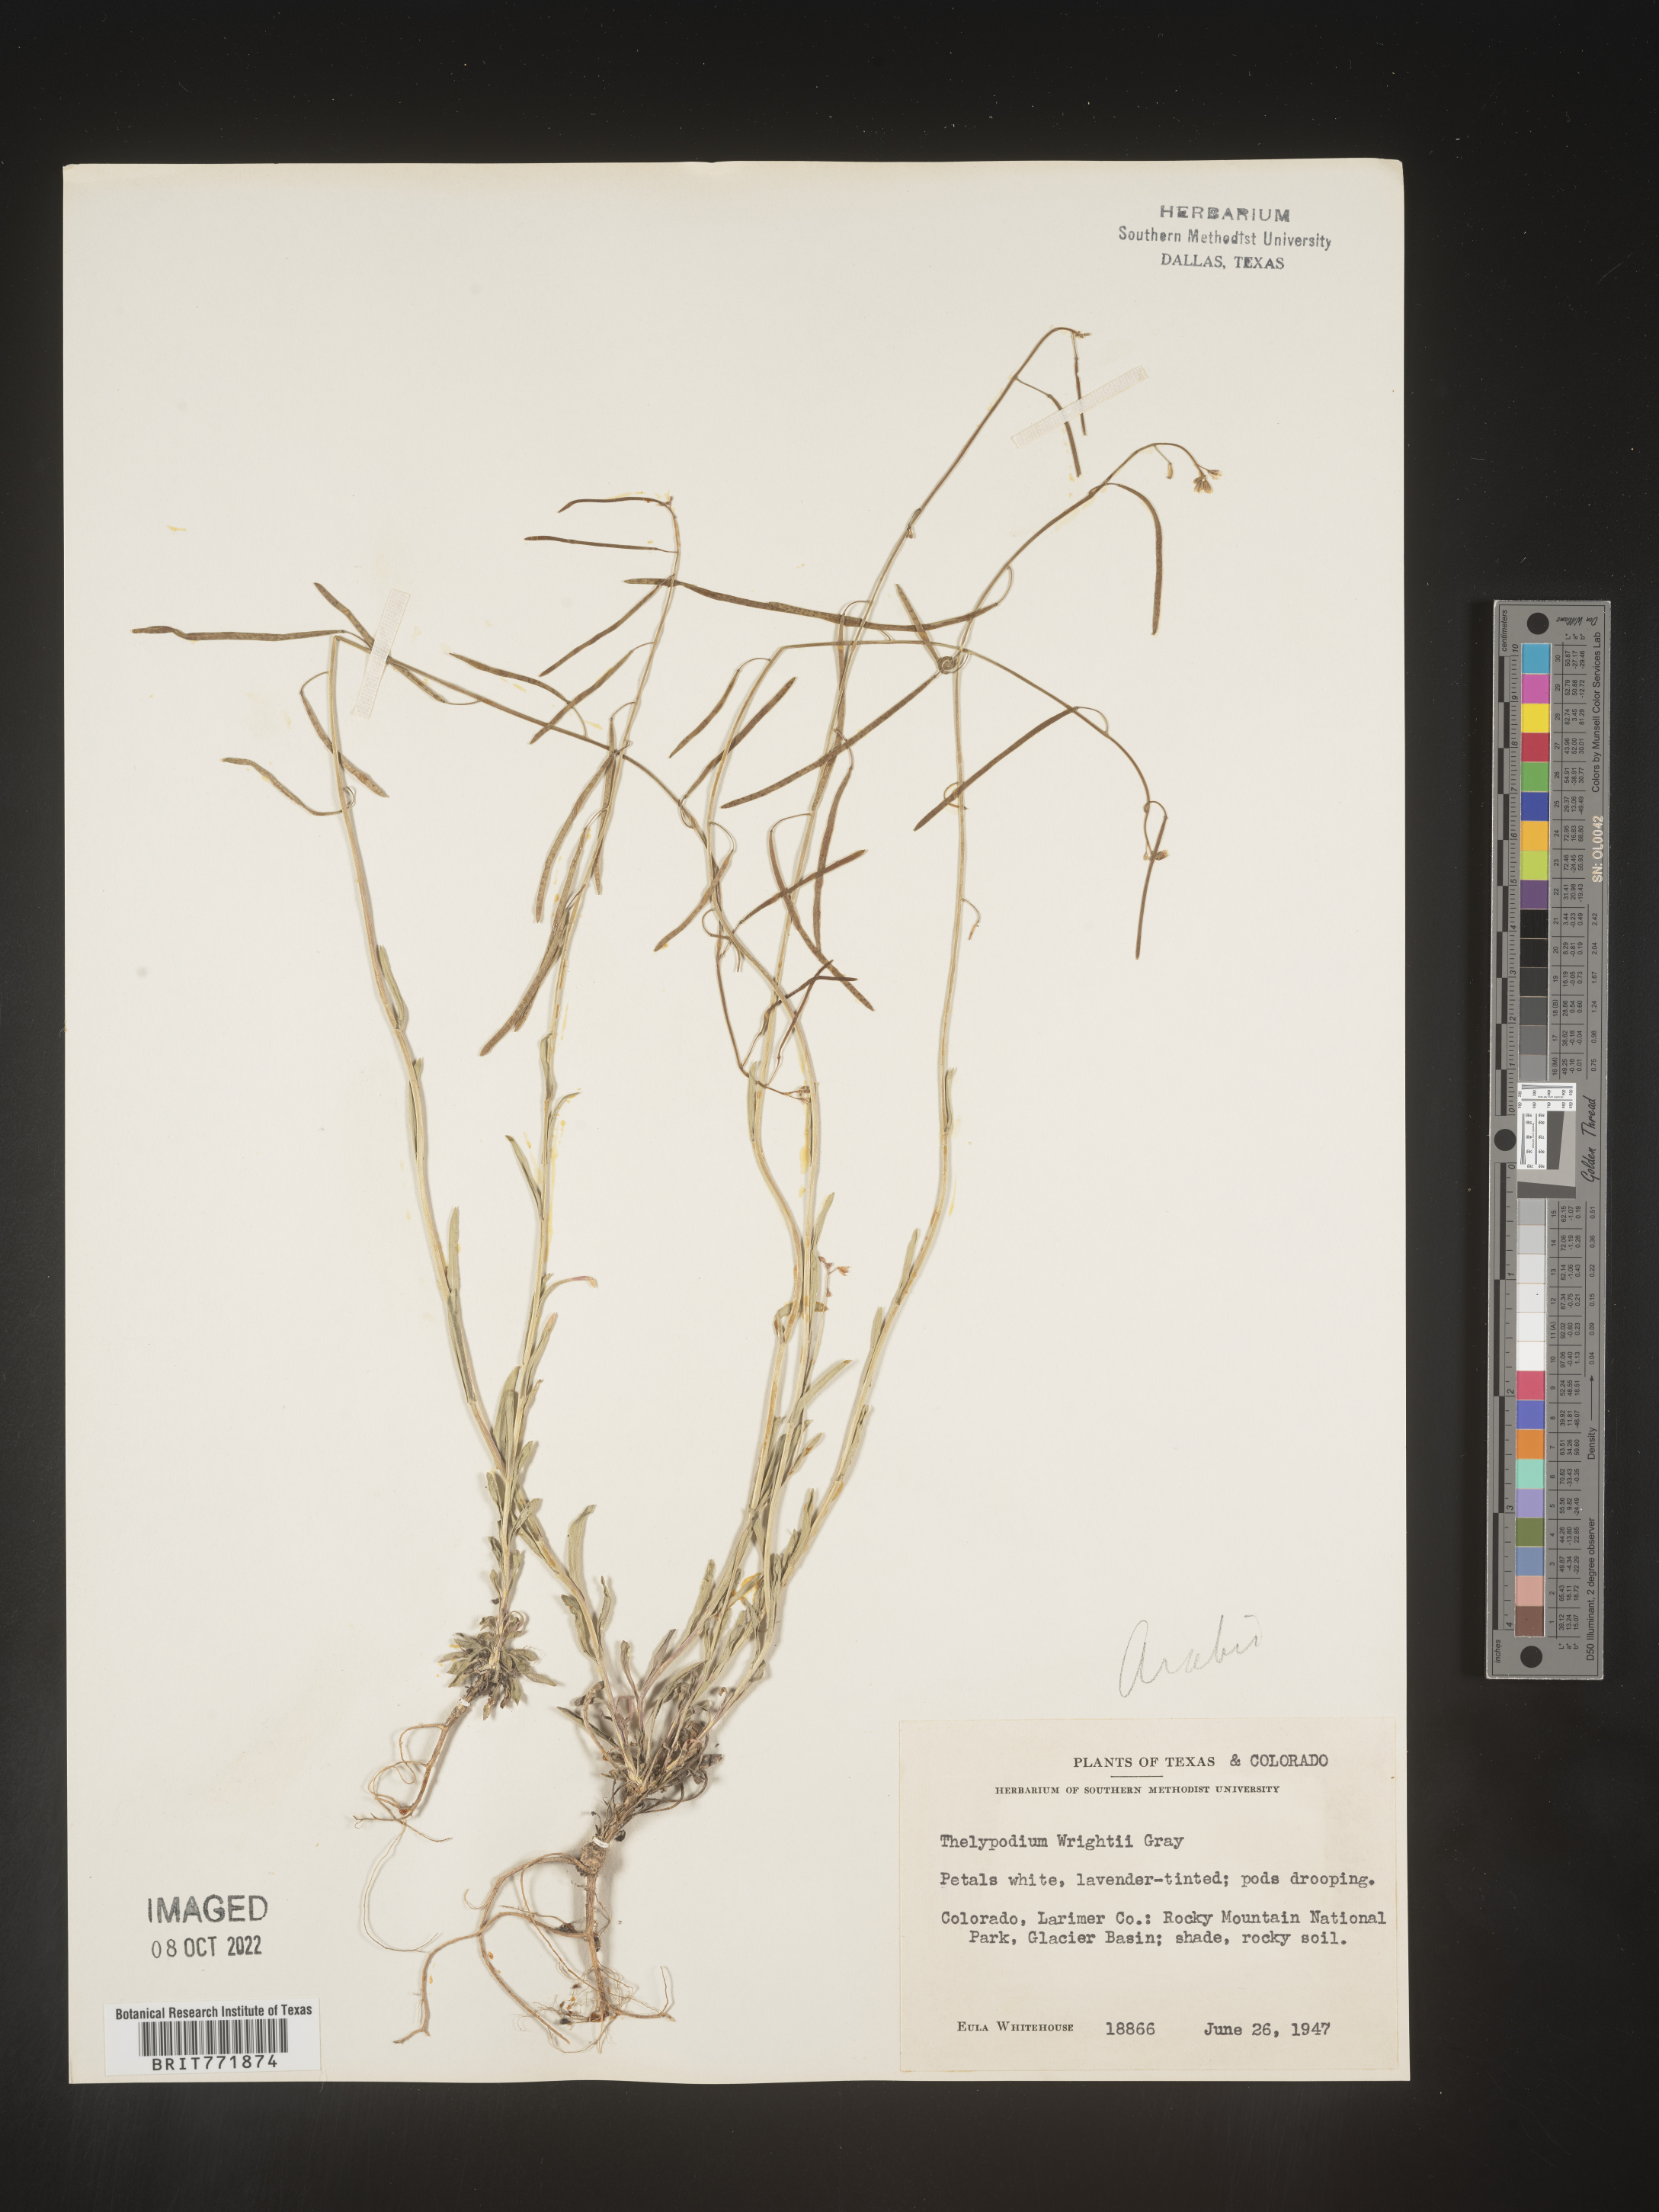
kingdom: Plantae
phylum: Tracheophyta
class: Magnoliopsida
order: Brassicales
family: Brassicaceae
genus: Arabis
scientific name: Arabis
